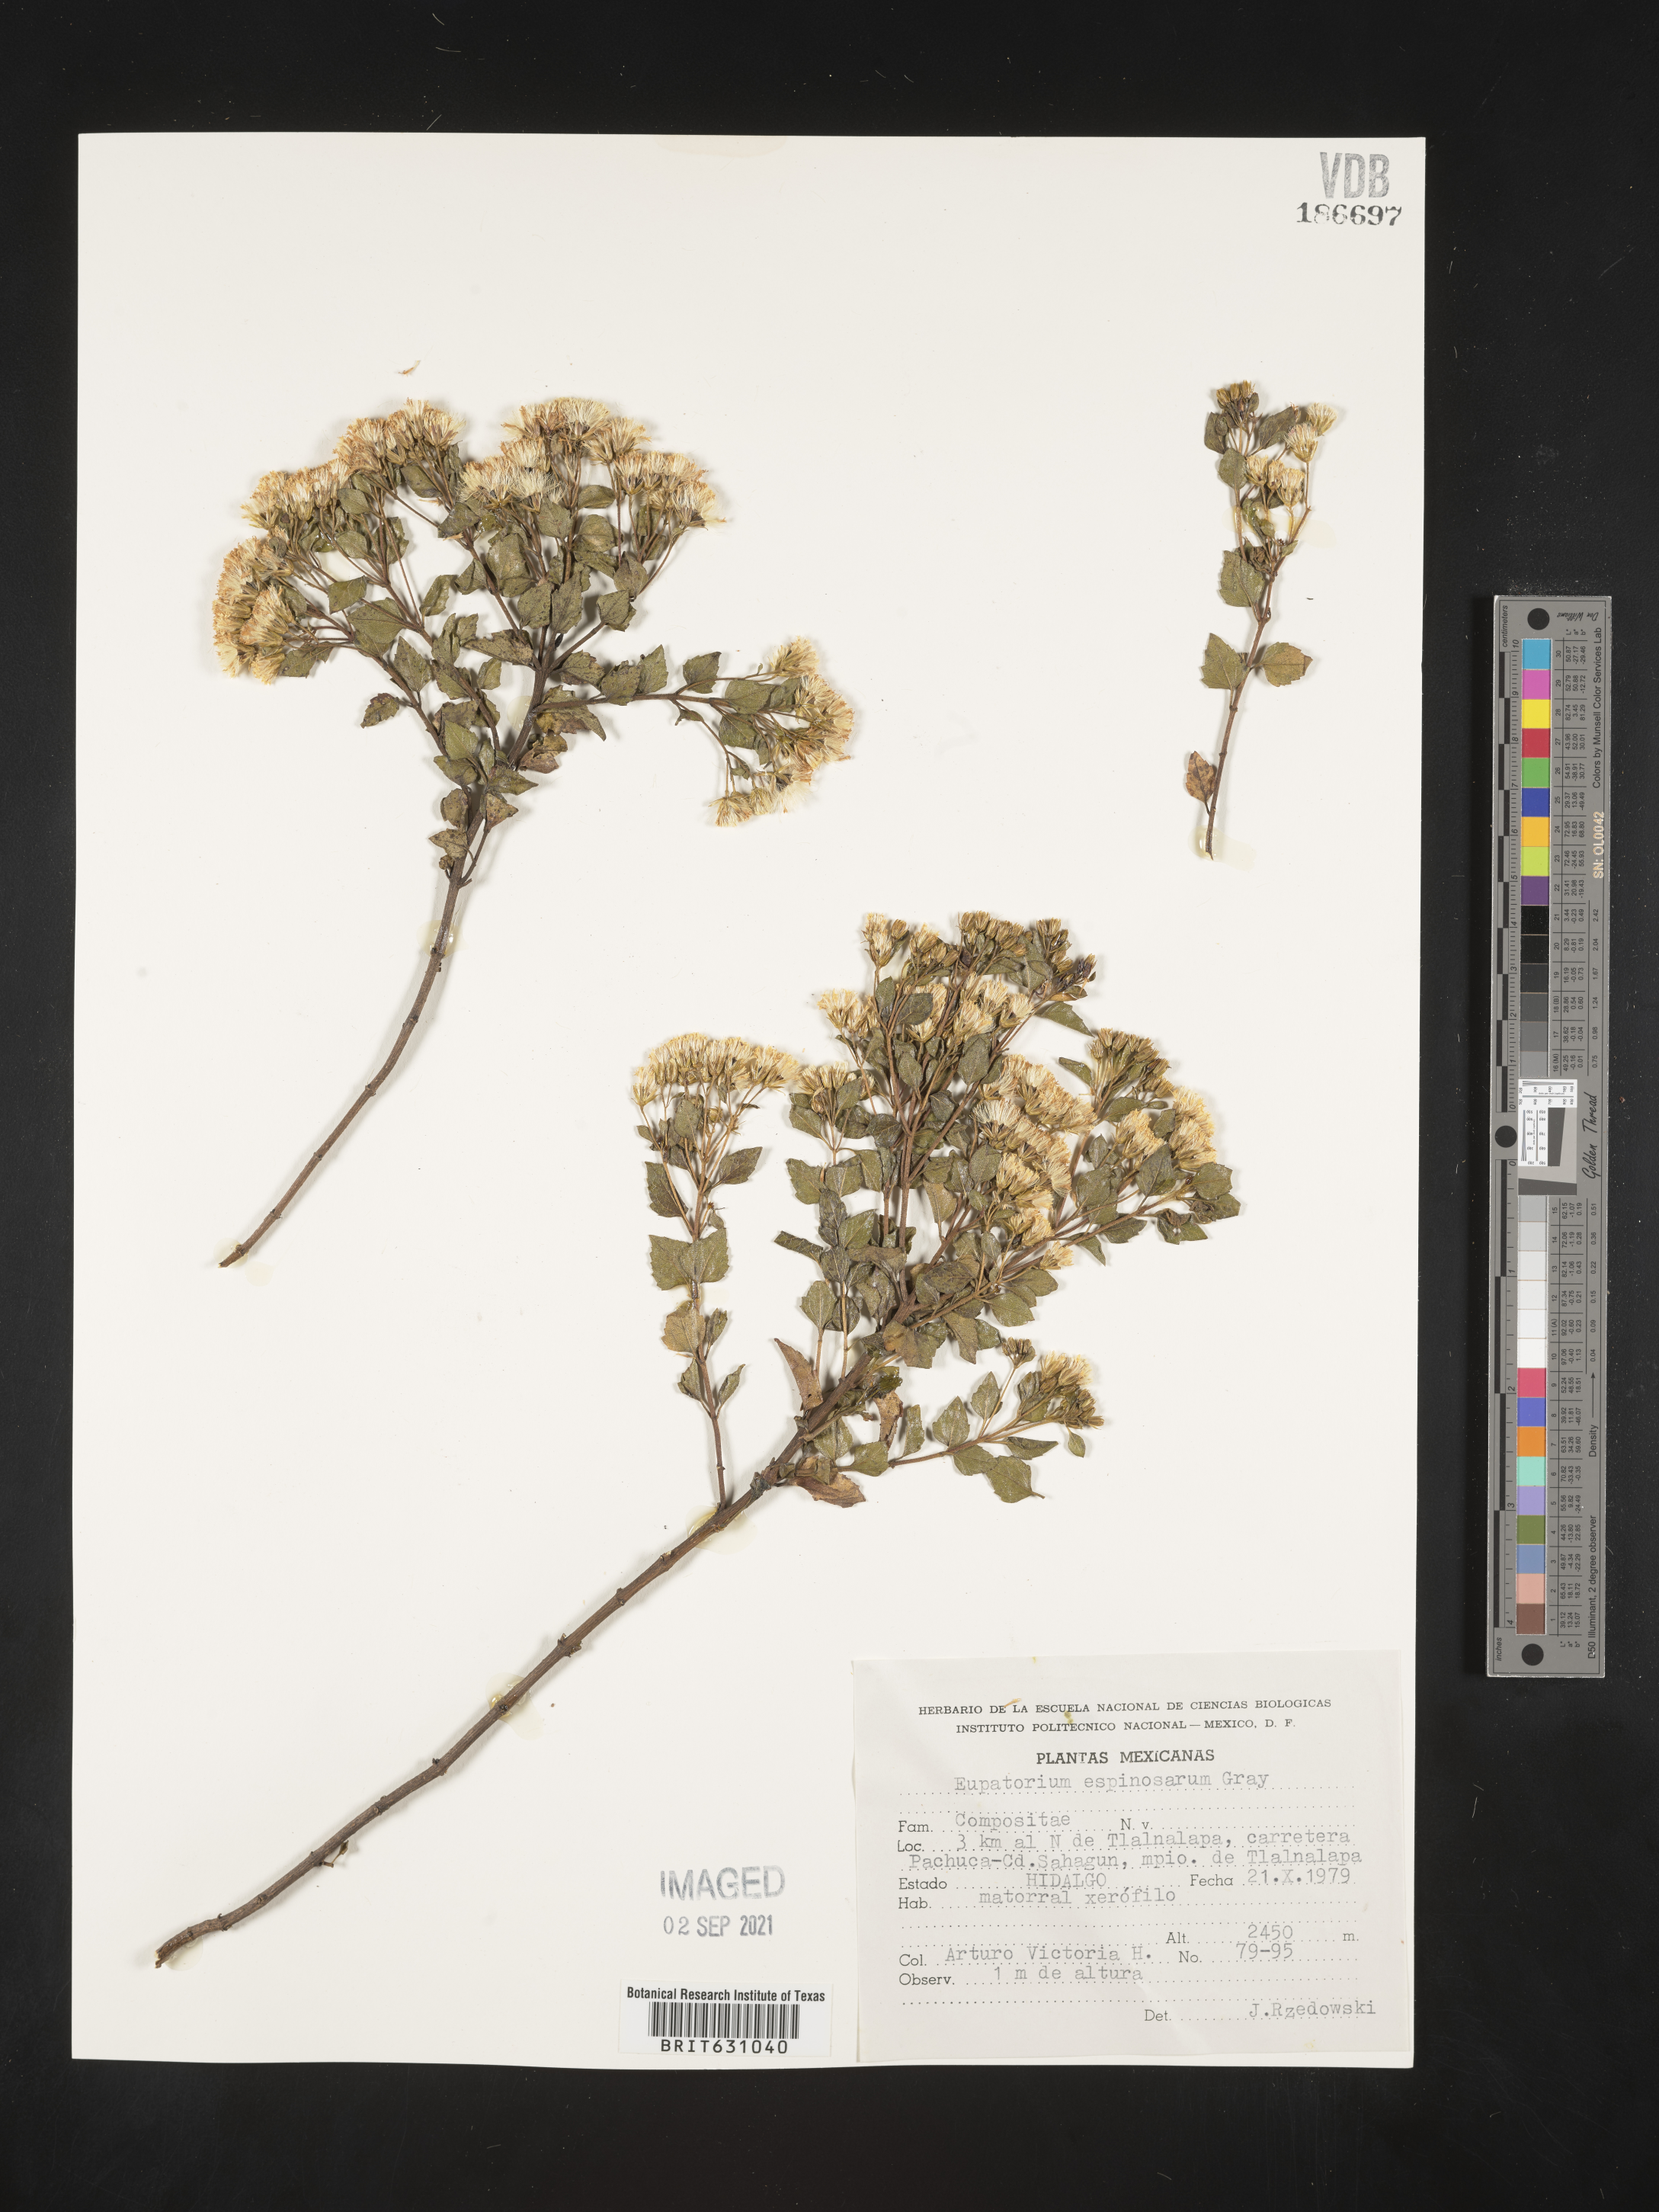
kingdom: Plantae
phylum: Tracheophyta
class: Magnoliopsida
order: Asterales
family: Asteraceae
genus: Eupatorium
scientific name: Eupatorium
